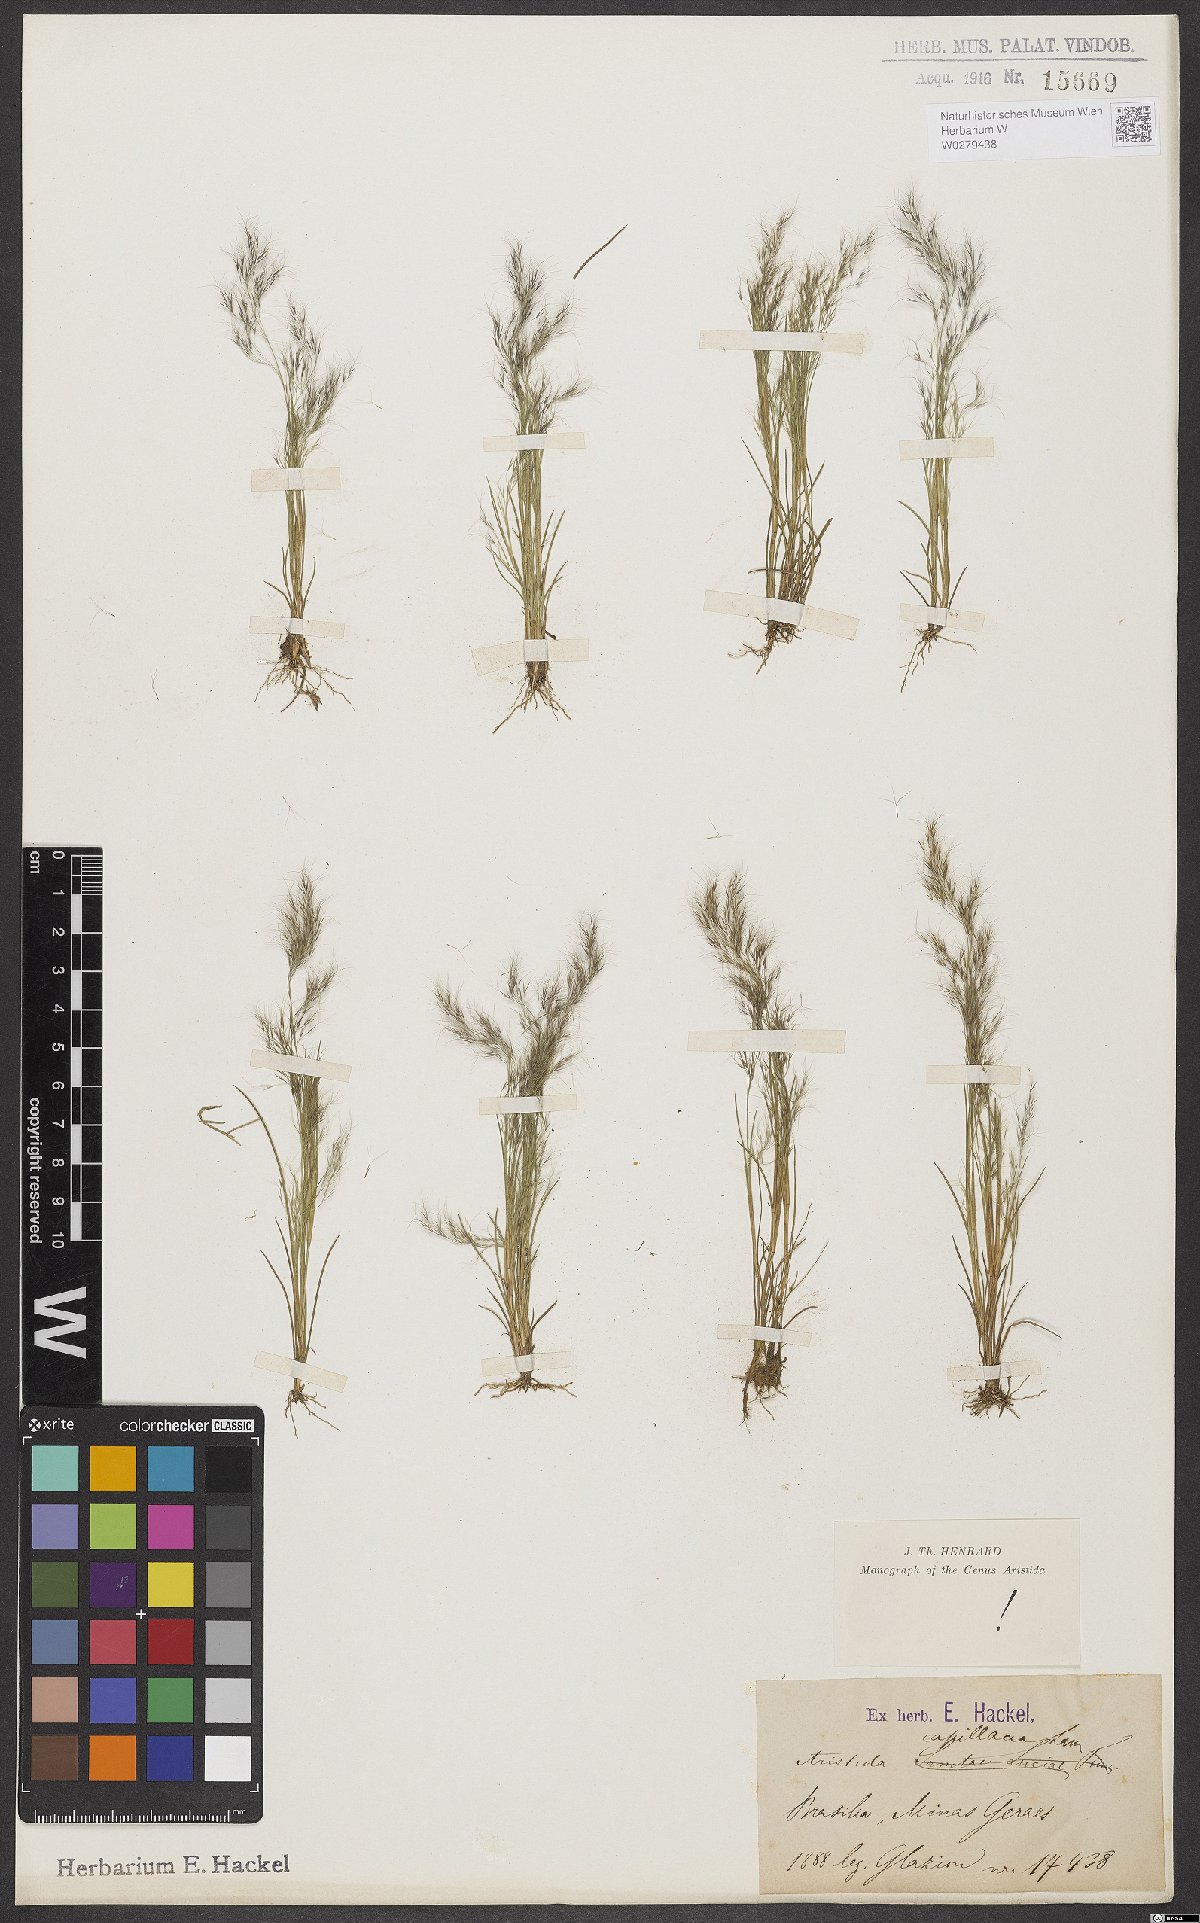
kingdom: Plantae
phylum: Tracheophyta
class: Liliopsida
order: Poales
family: Poaceae
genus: Aristida
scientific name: Aristida capillacea
